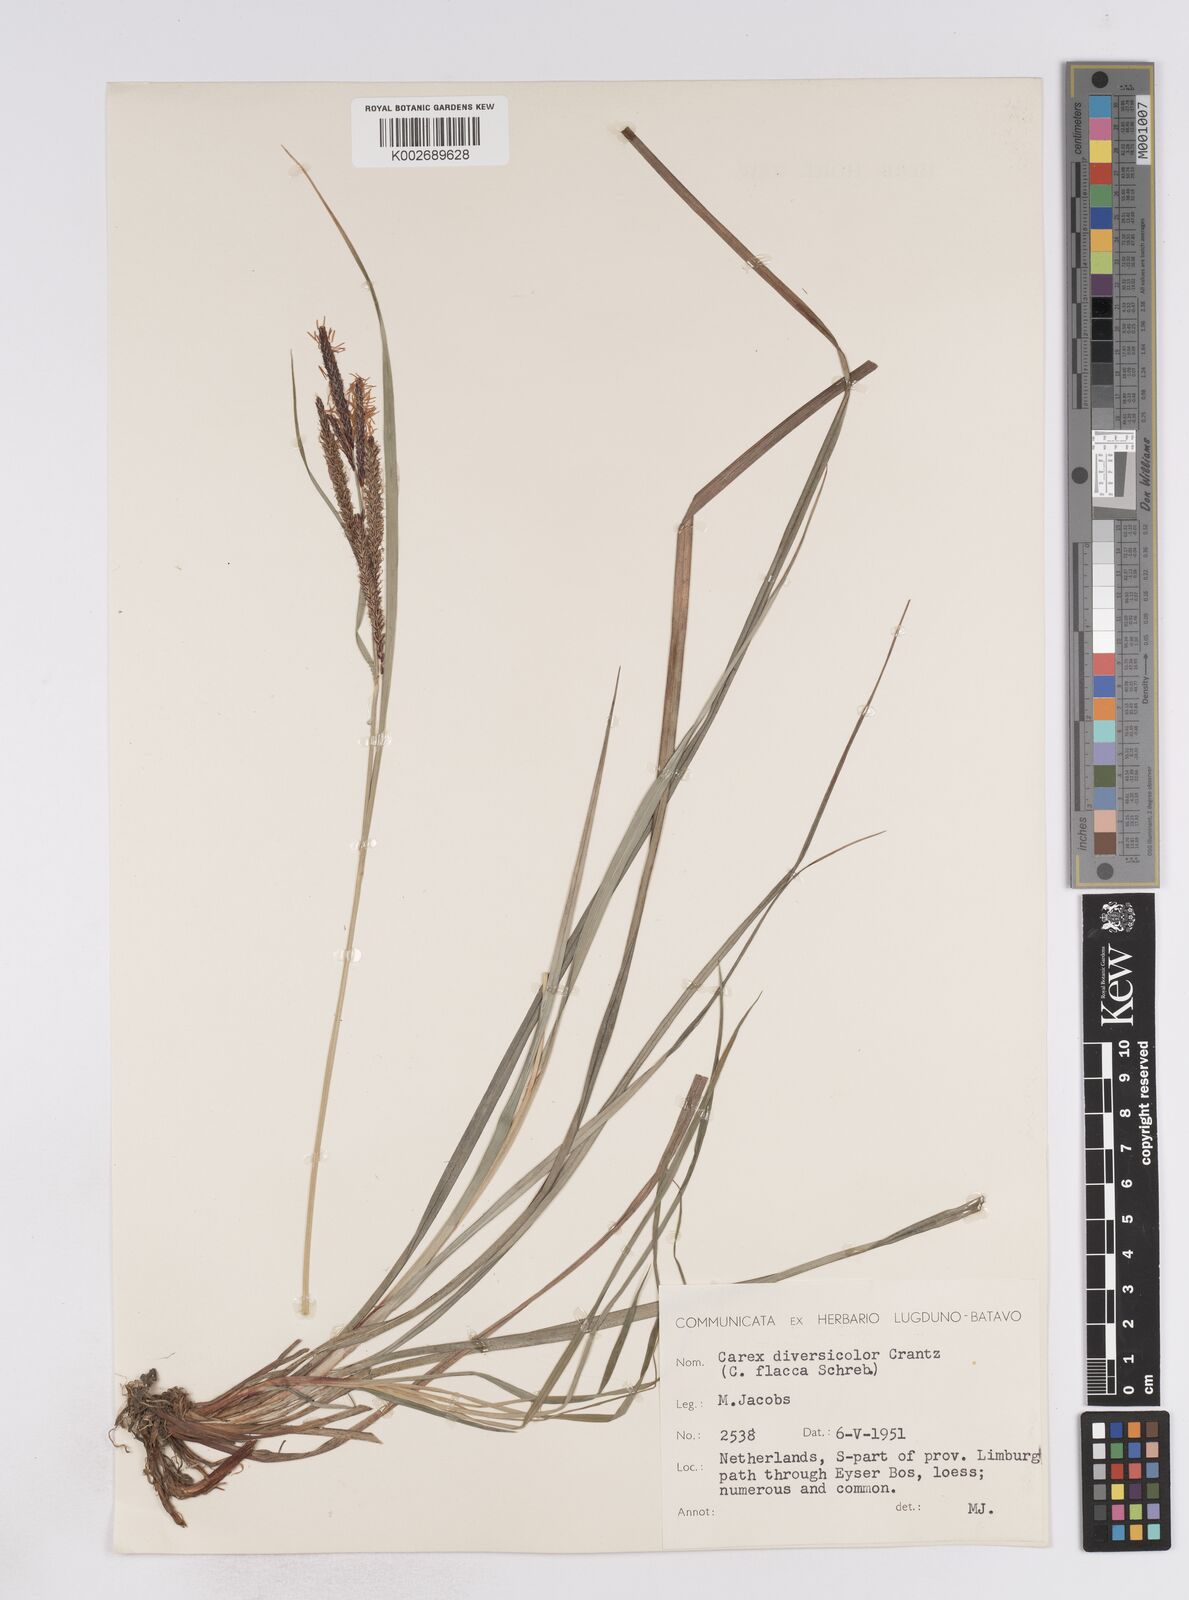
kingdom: Plantae
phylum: Tracheophyta
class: Liliopsida
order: Poales
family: Cyperaceae
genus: Carex
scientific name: Carex flacca
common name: Glaucous sedge
